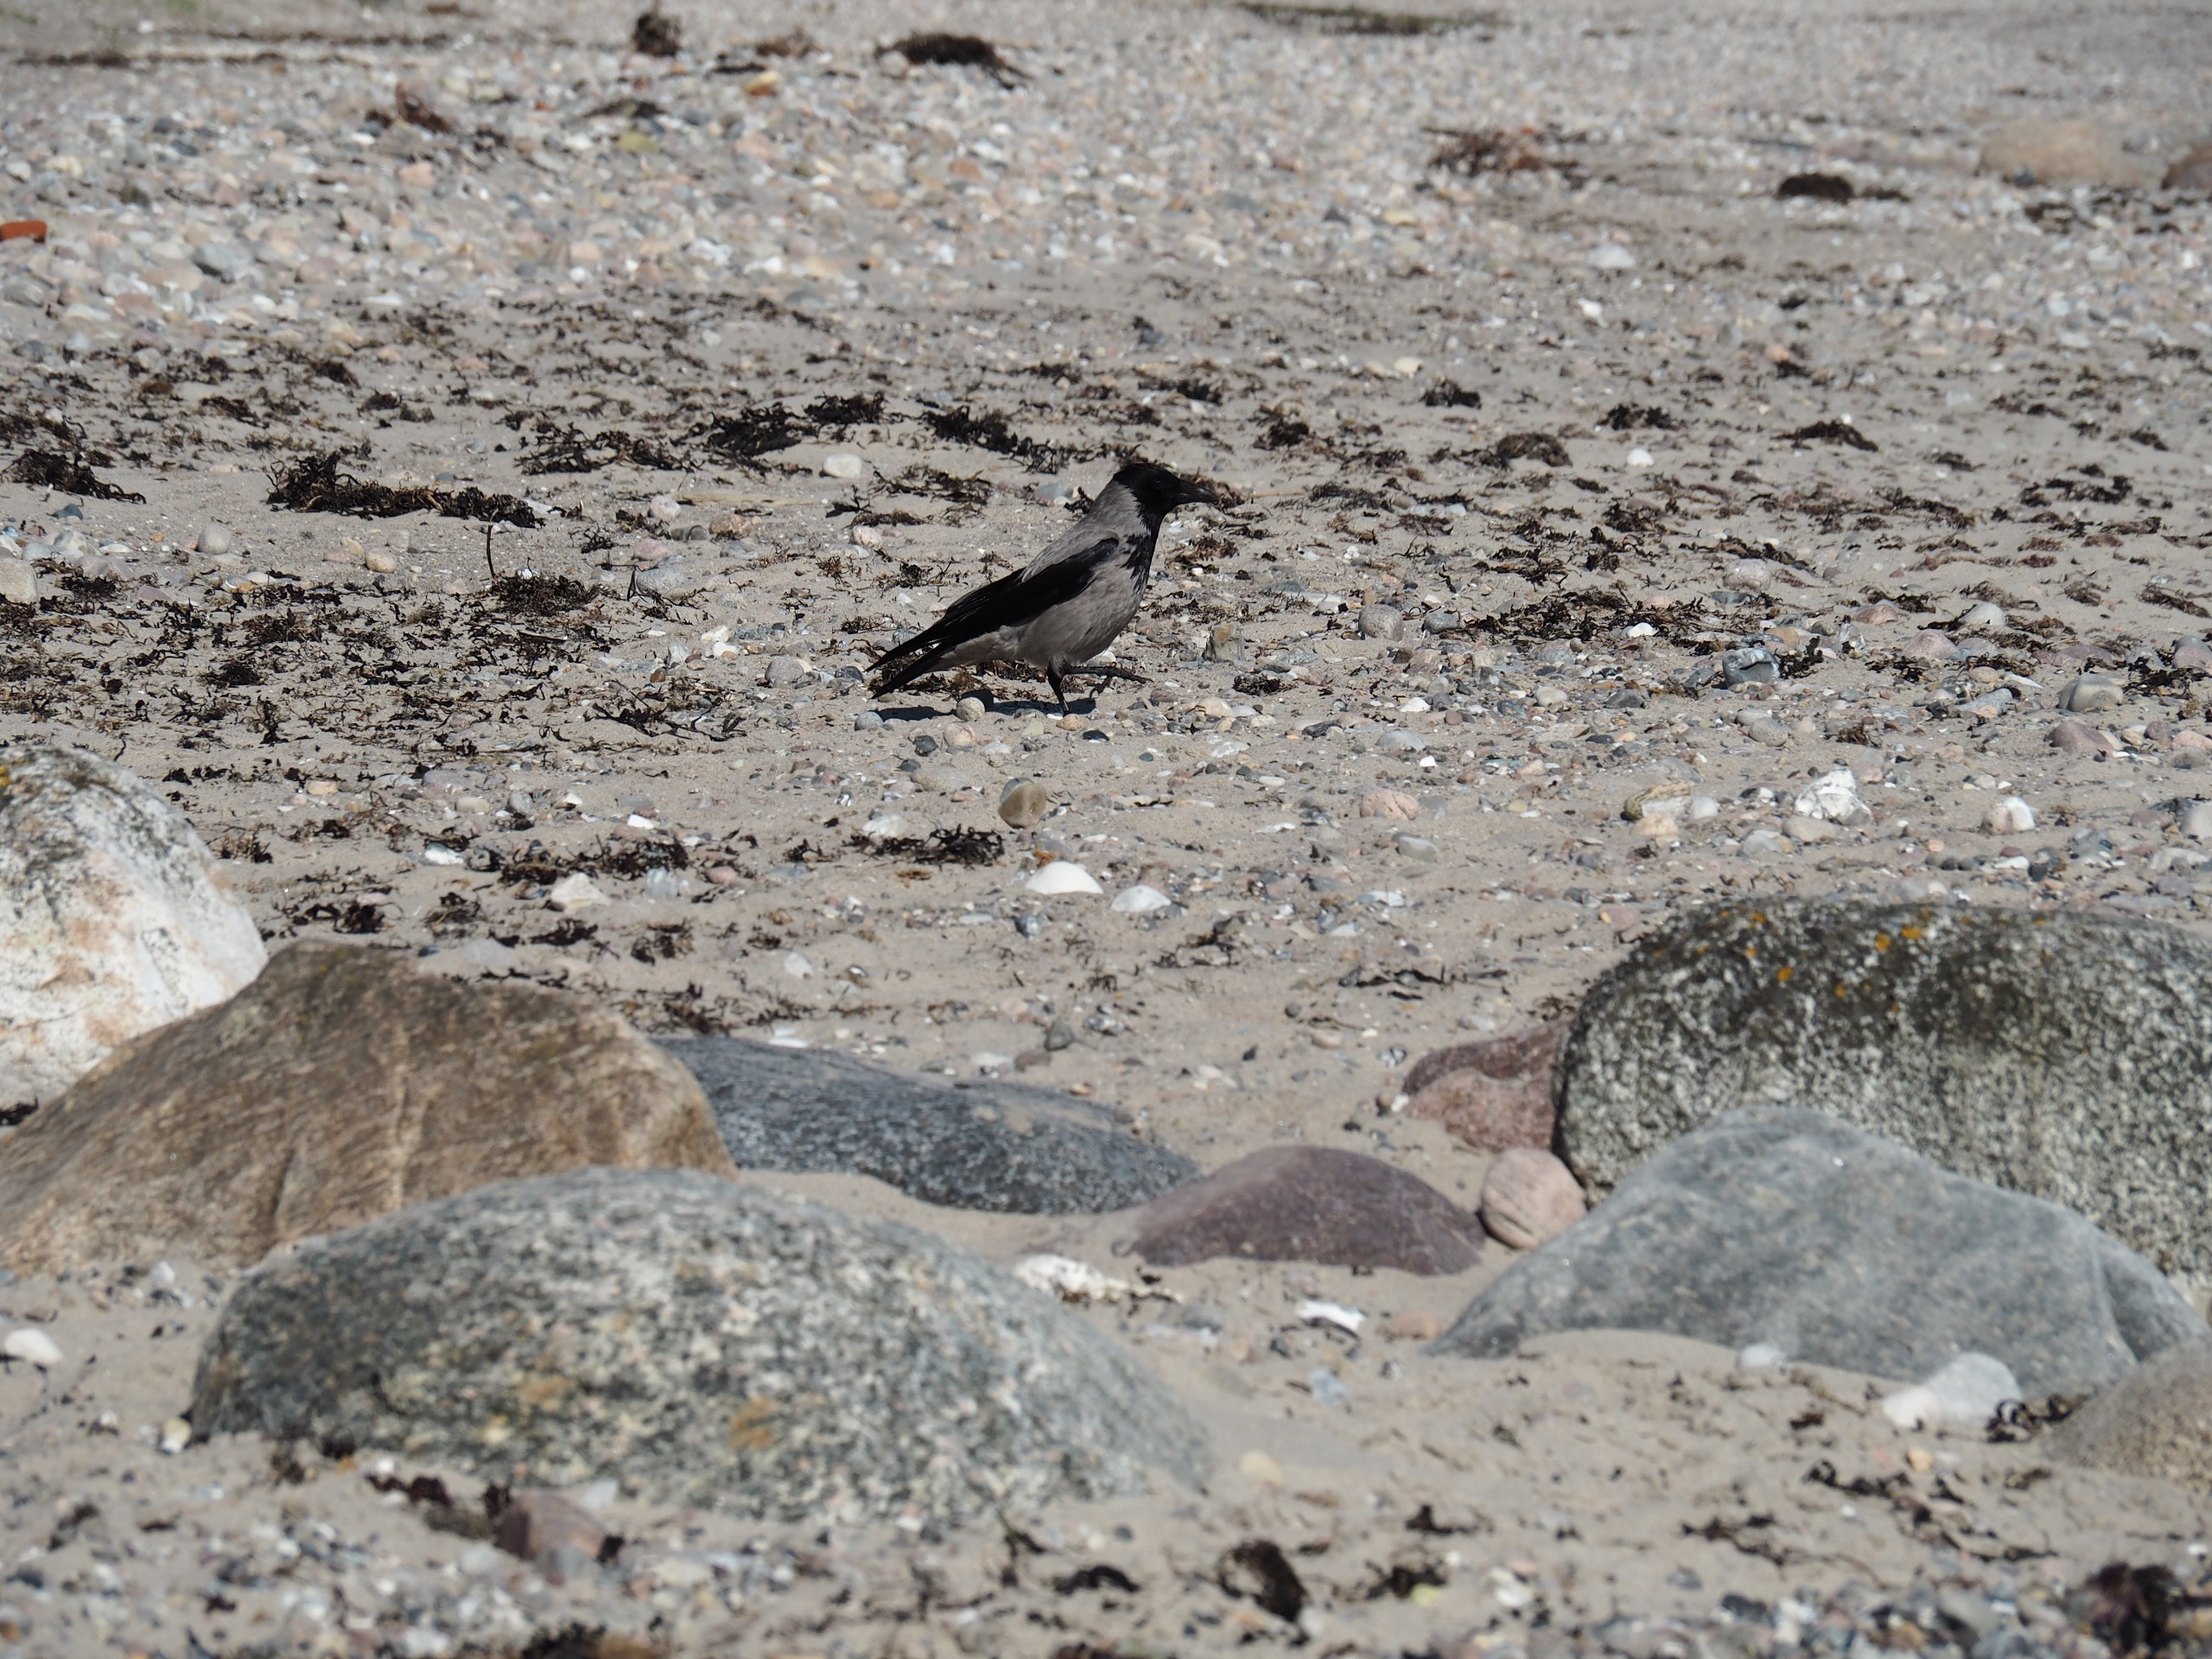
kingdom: Animalia
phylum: Chordata
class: Aves
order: Passeriformes
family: Corvidae
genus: Corvus
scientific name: Corvus cornix
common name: Gråkrage
